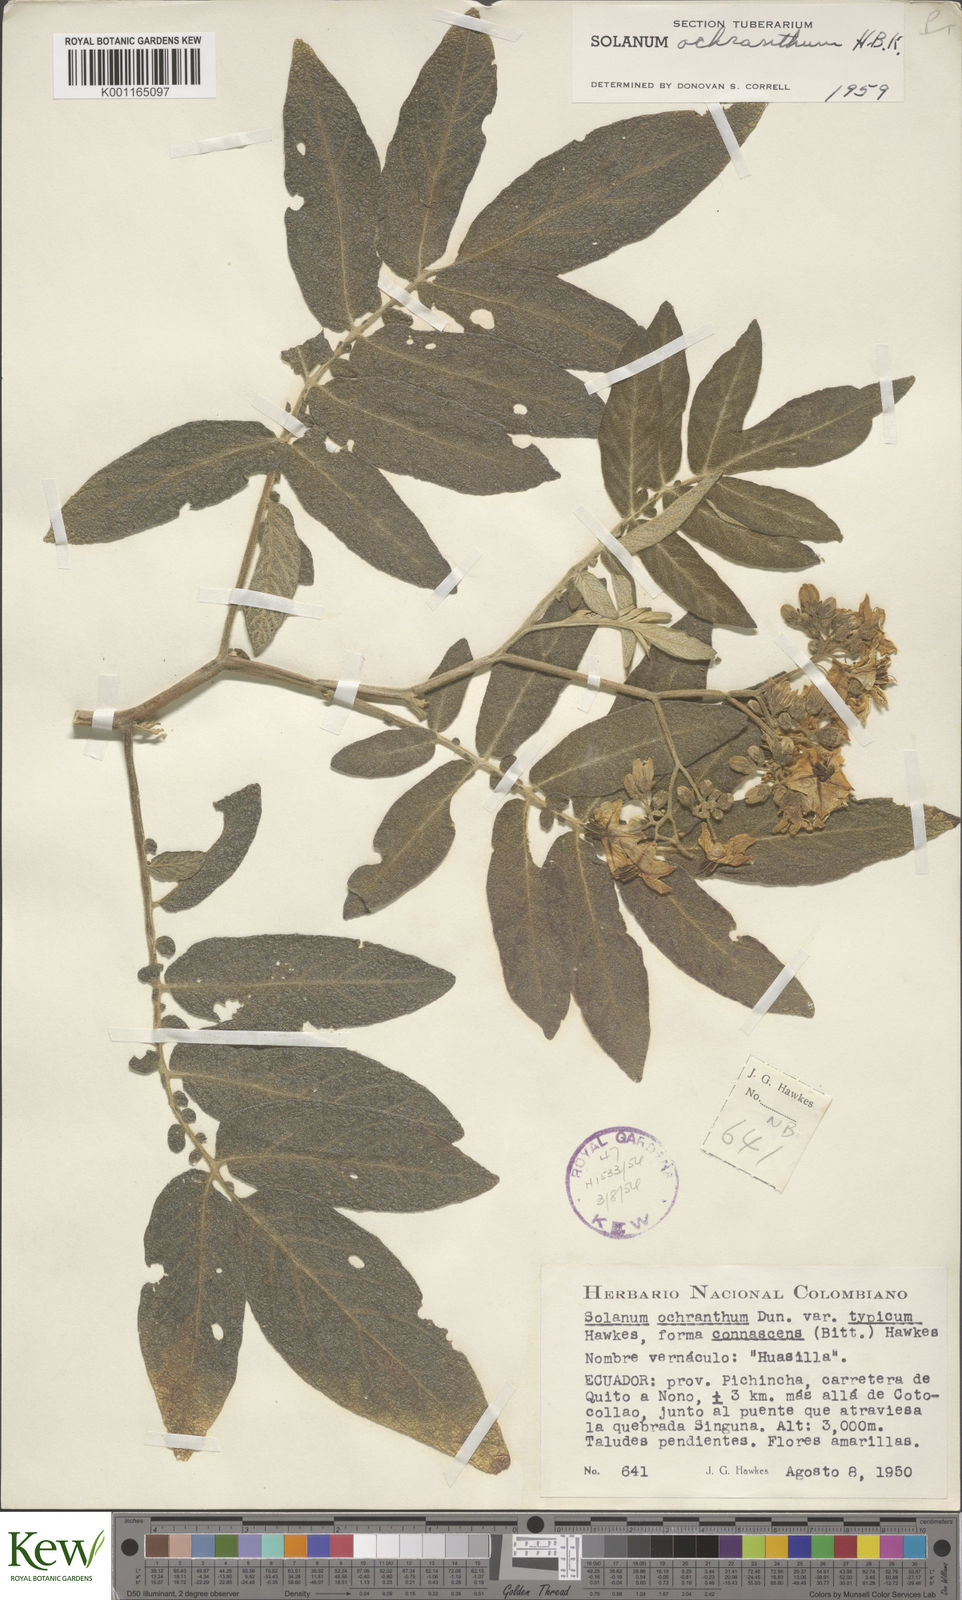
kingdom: Plantae
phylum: Tracheophyta
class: Magnoliopsida
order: Solanales
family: Solanaceae
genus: Solanum
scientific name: Solanum ochranthum
